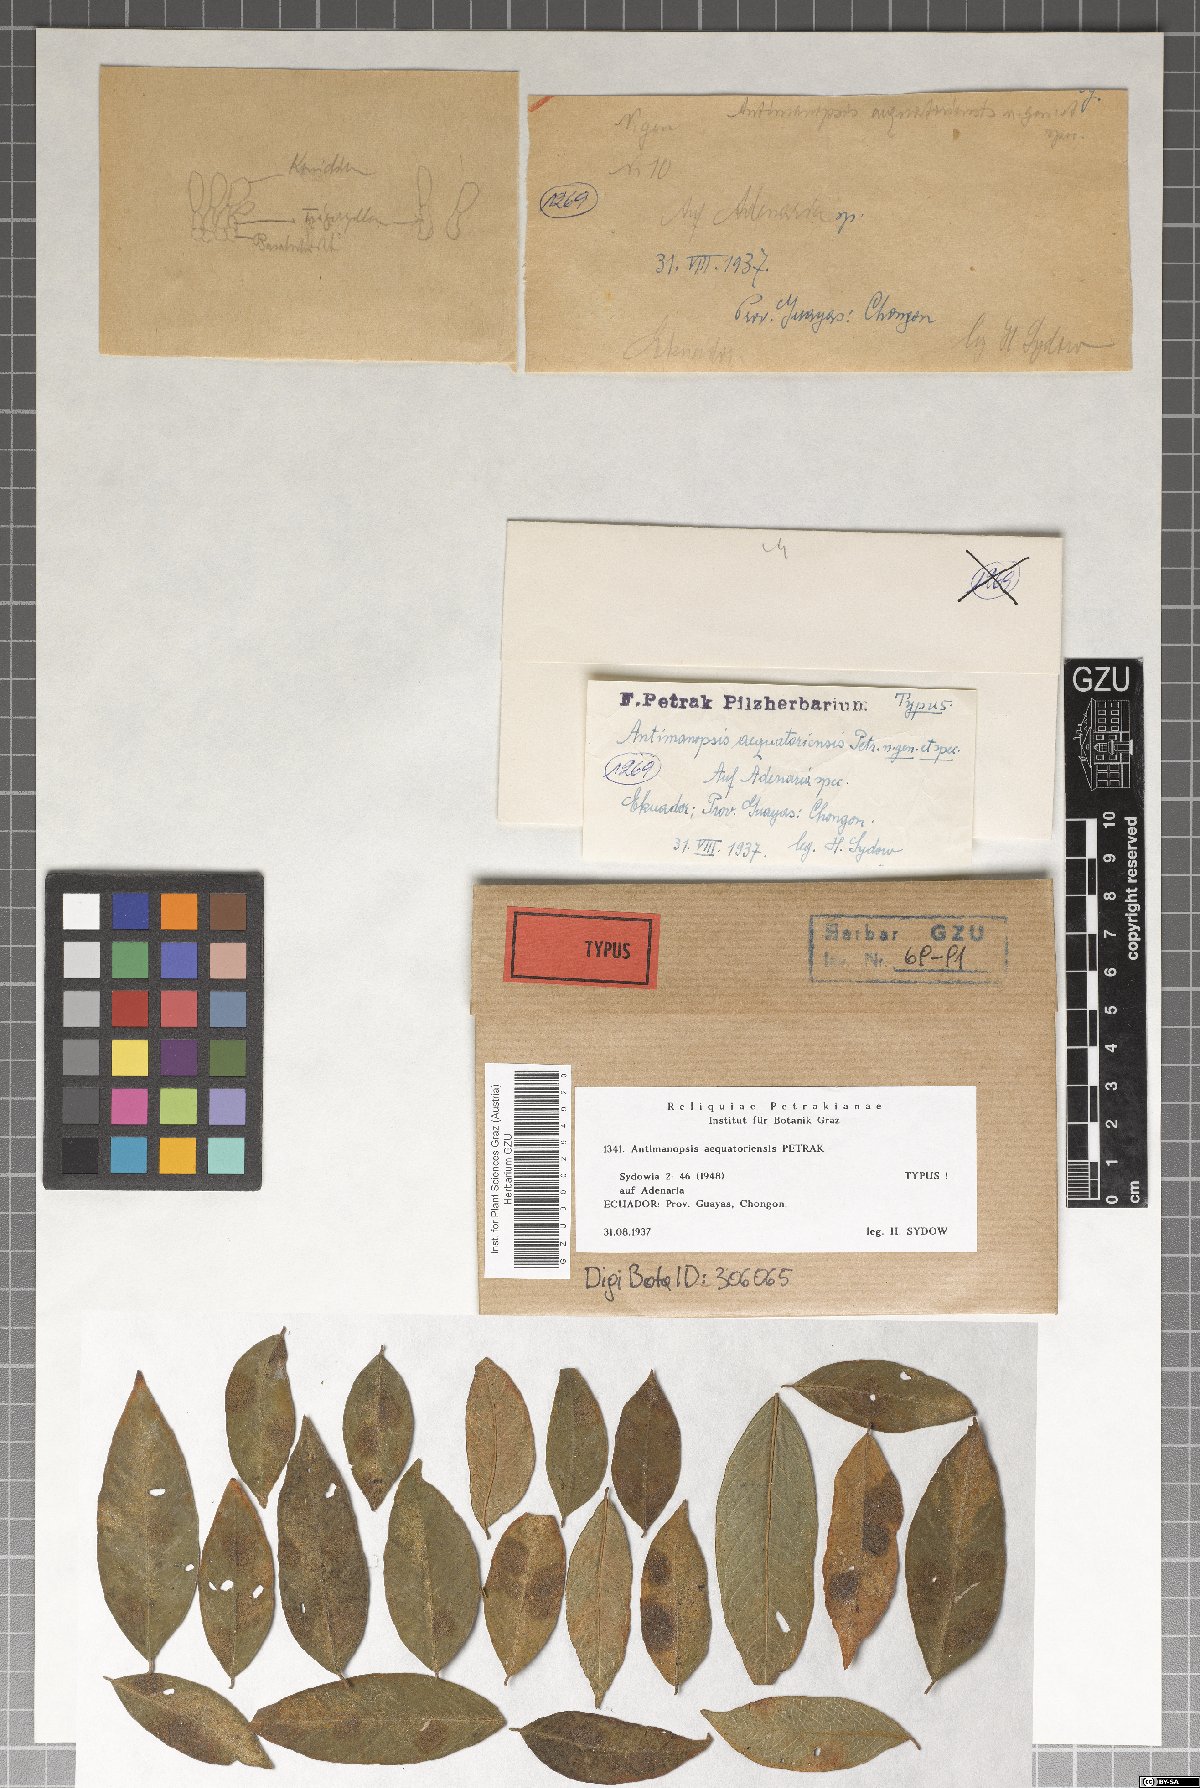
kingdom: Fungi
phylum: Ascomycota
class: Leotiomycetes
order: Helotiales
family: Dermateaceae
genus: Monostichella
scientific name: Monostichella aequatoriensis
